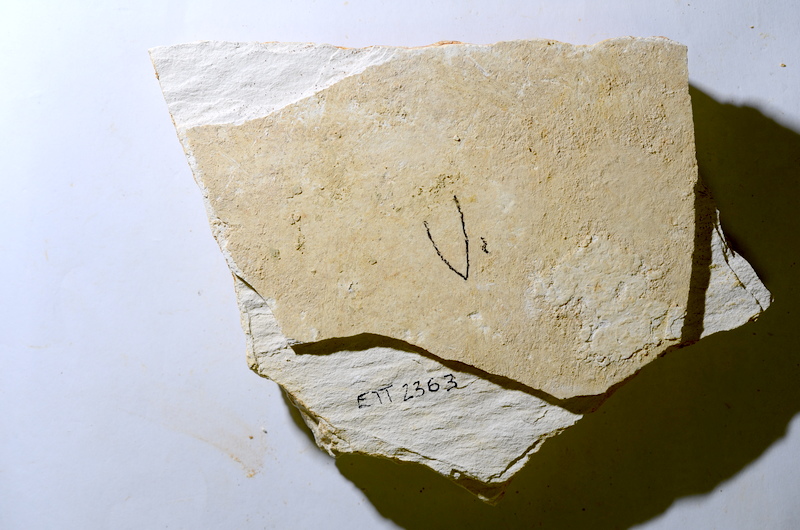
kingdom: Animalia
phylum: Chordata
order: Salmoniformes
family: Orthogonikleithridae
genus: Orthogonikleithrus
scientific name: Orthogonikleithrus hoelli
